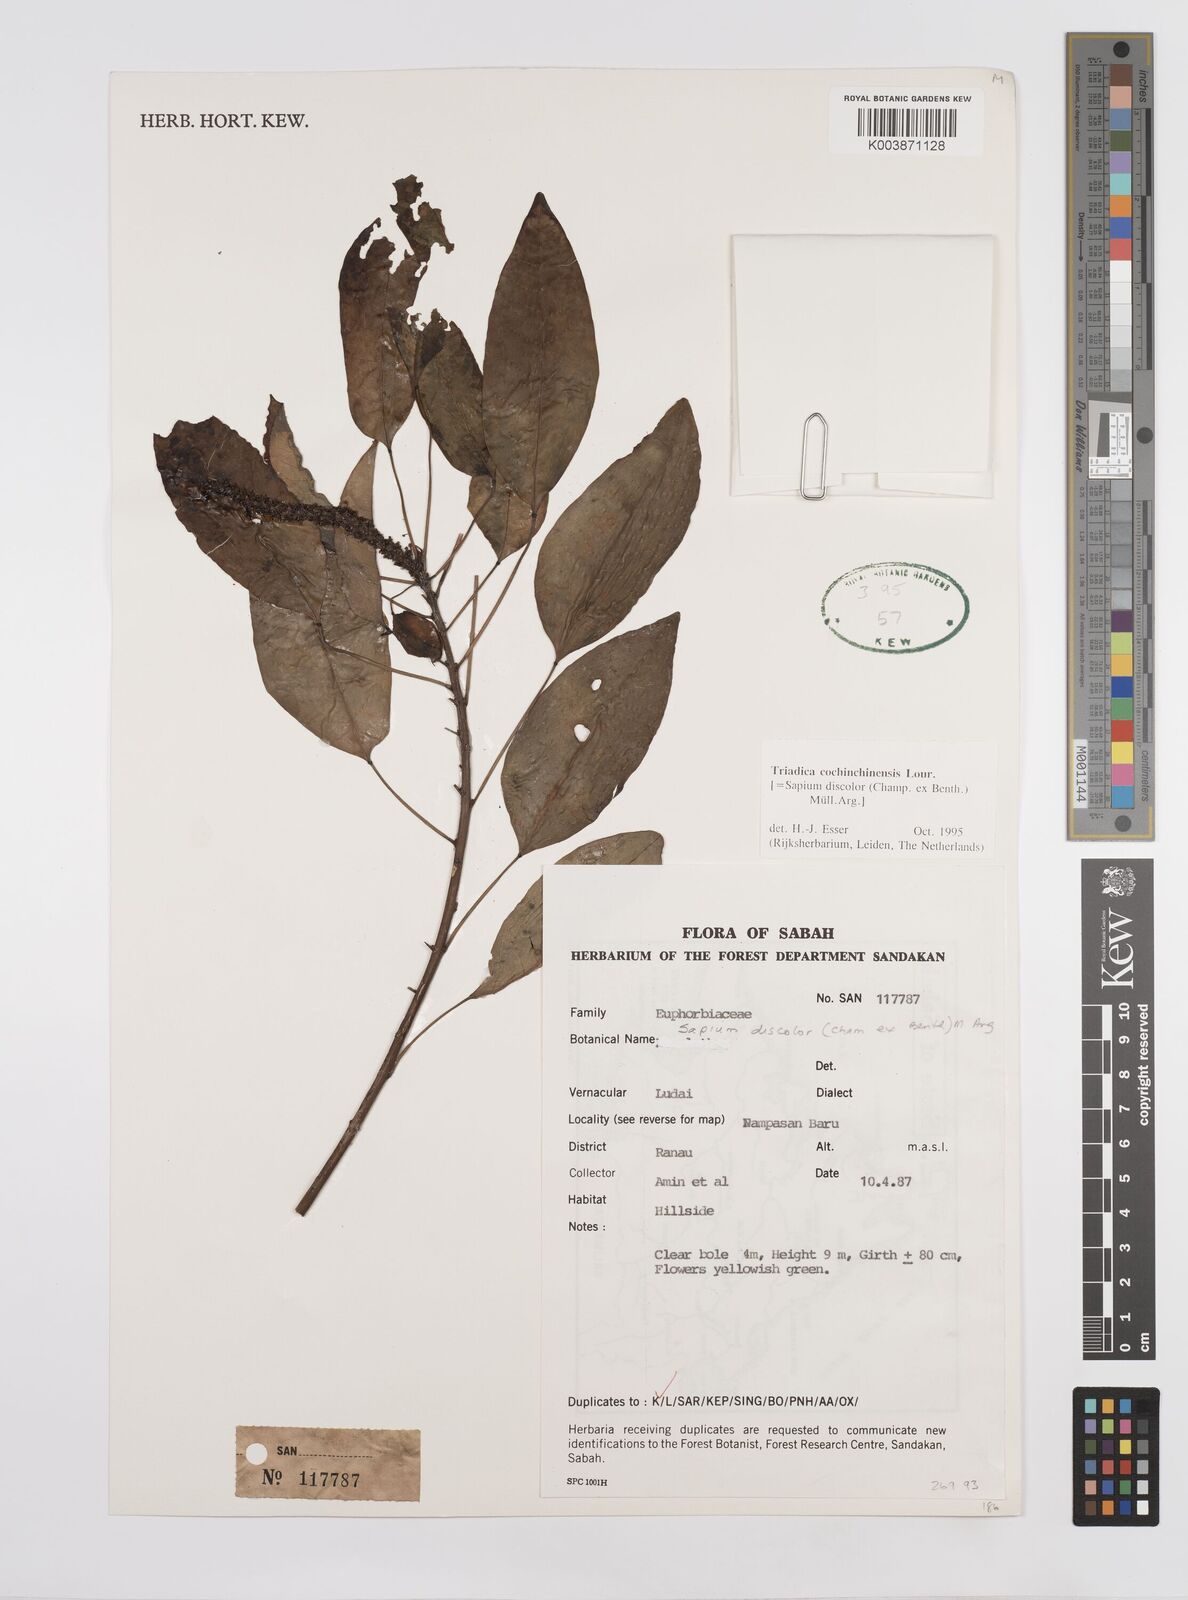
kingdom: Plantae
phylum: Tracheophyta
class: Magnoliopsida
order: Malpighiales
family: Euphorbiaceae
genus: Triadica
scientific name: Triadica cochinchinensis
